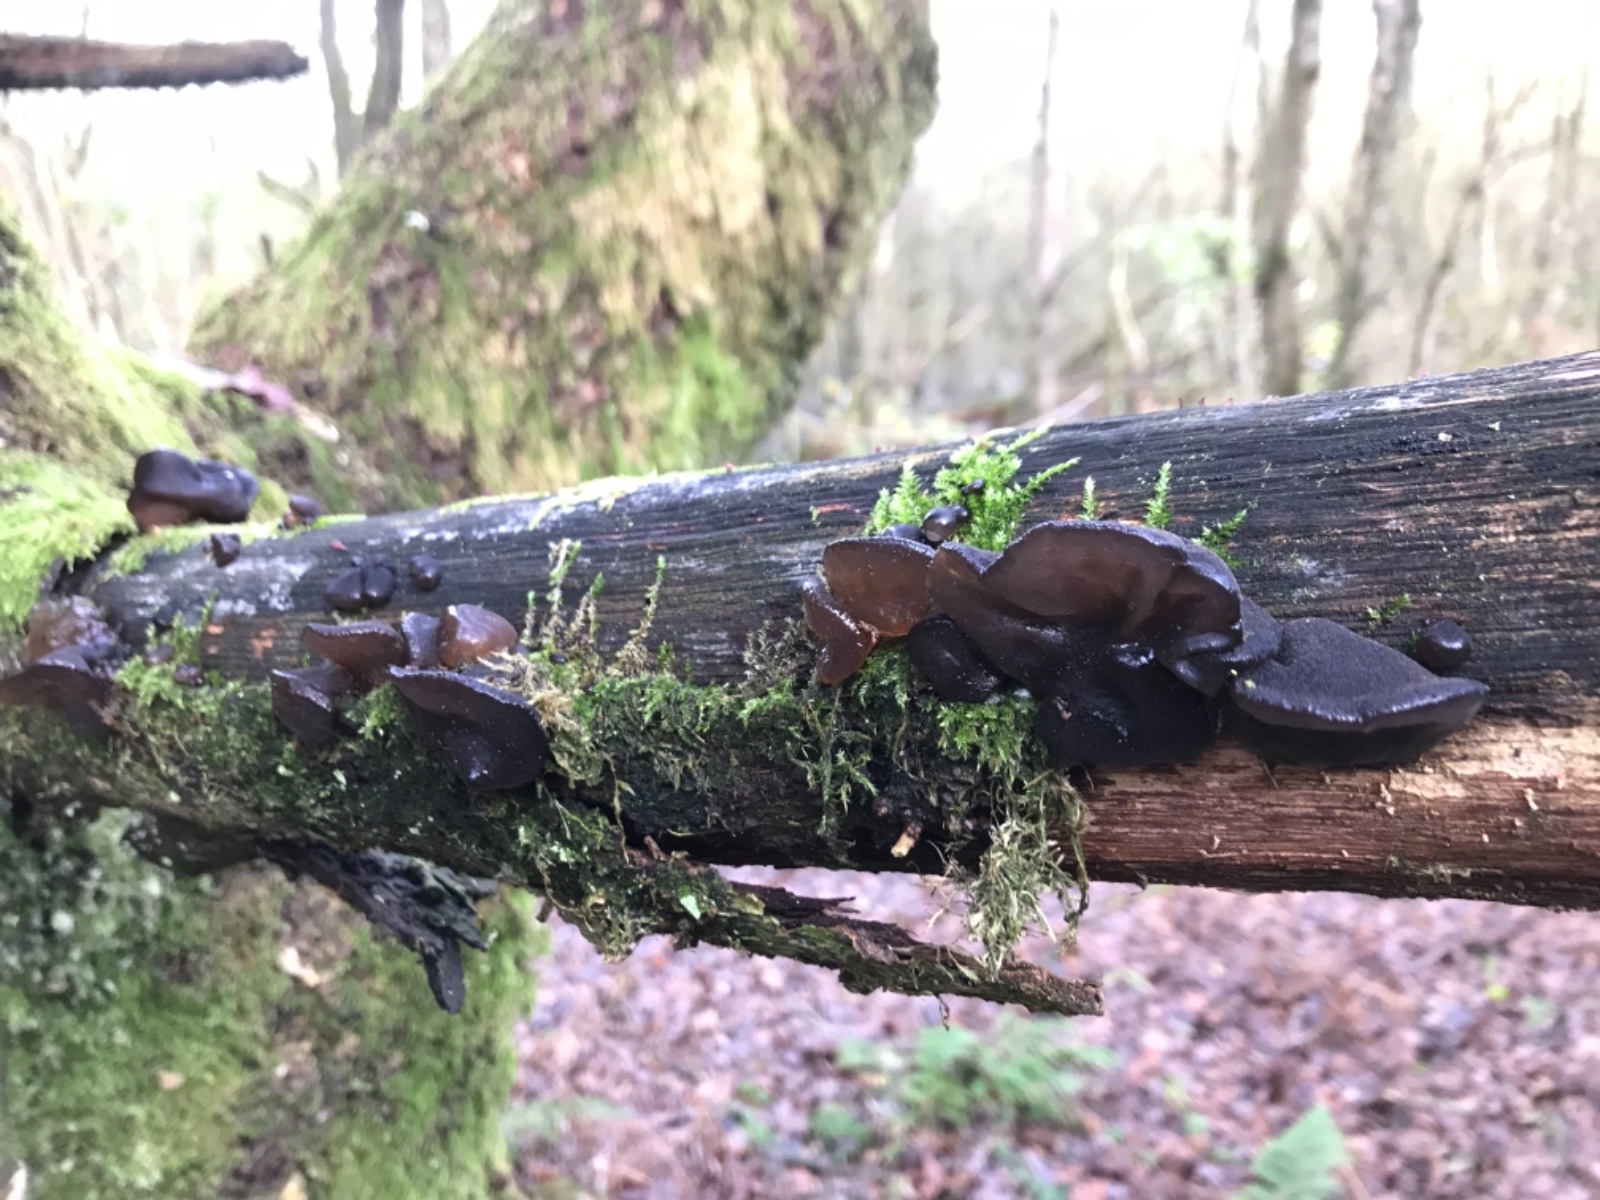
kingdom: Fungi
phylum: Basidiomycota
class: Agaricomycetes
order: Auriculariales
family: Auriculariaceae
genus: Exidia
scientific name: Exidia glandulosa
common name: ege-bævretop
